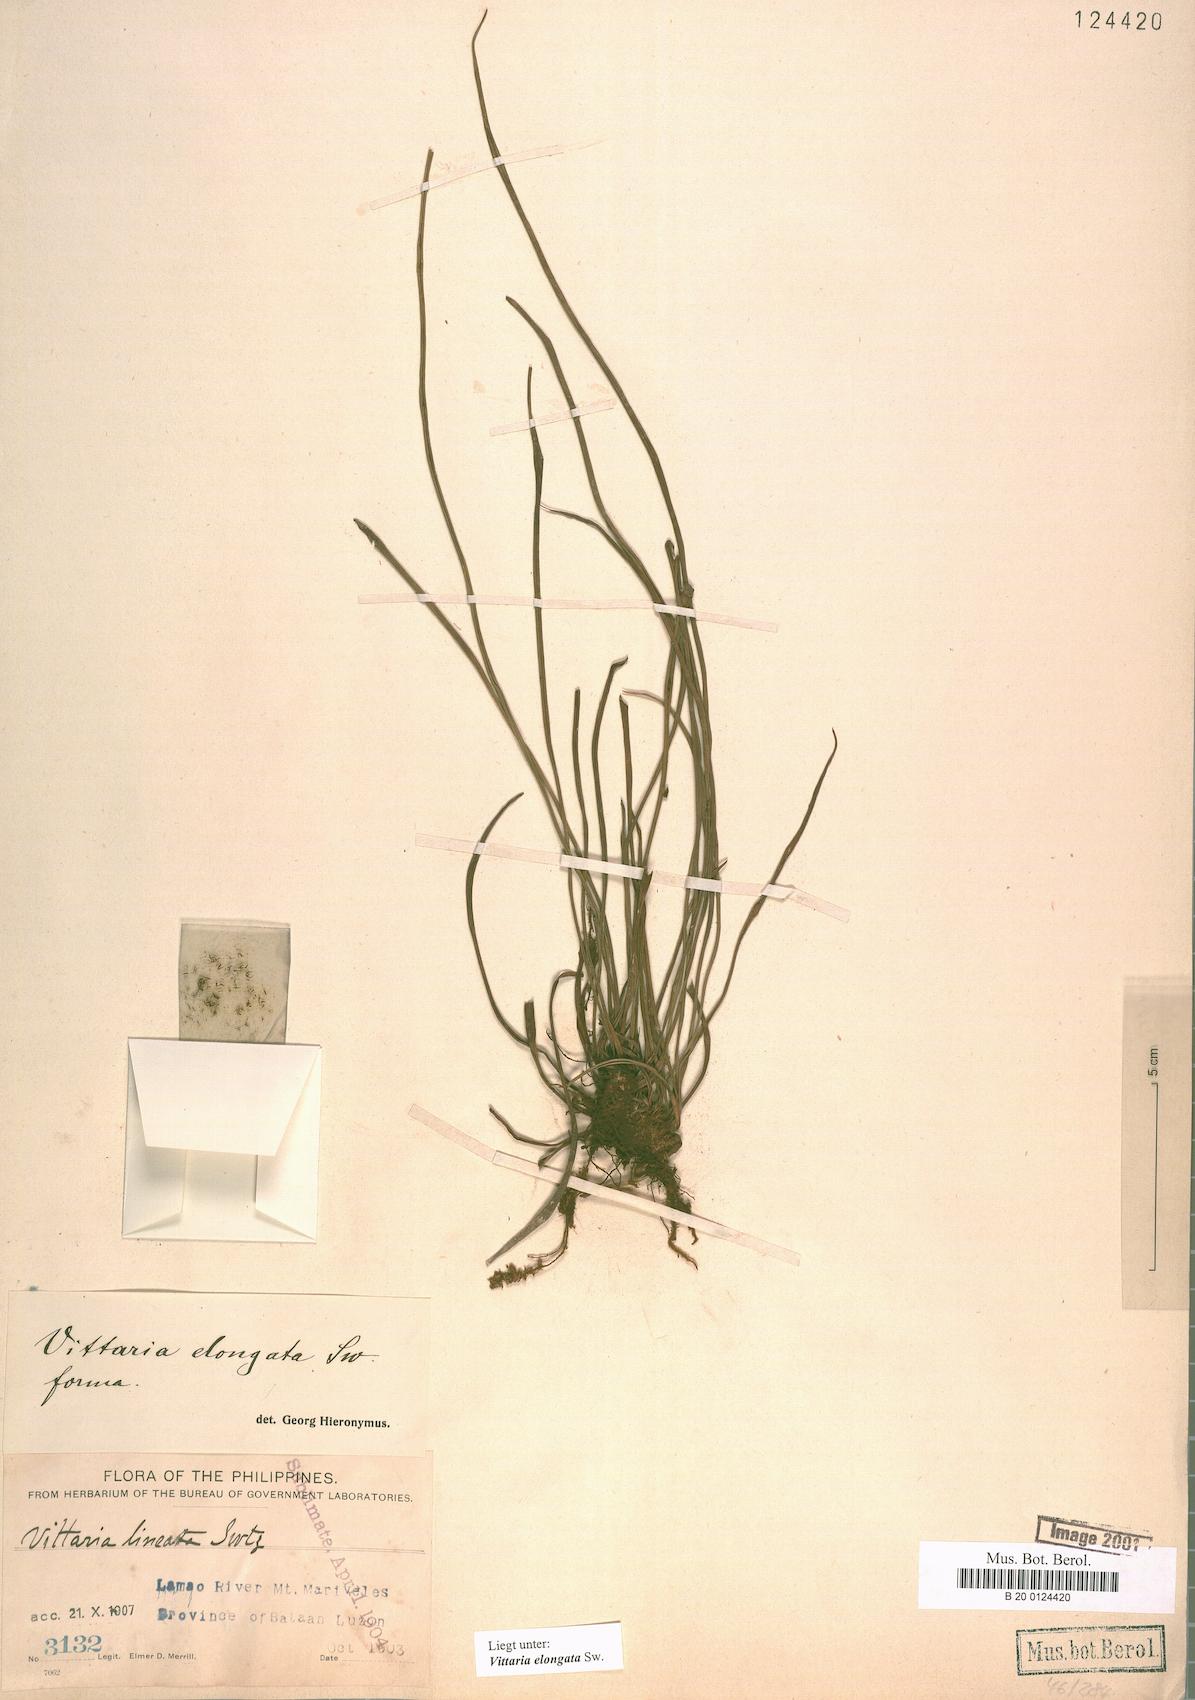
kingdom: Plantae
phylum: Tracheophyta
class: Polypodiopsida
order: Polypodiales
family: Pteridaceae
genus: Haplopteris
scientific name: Haplopteris elongata
